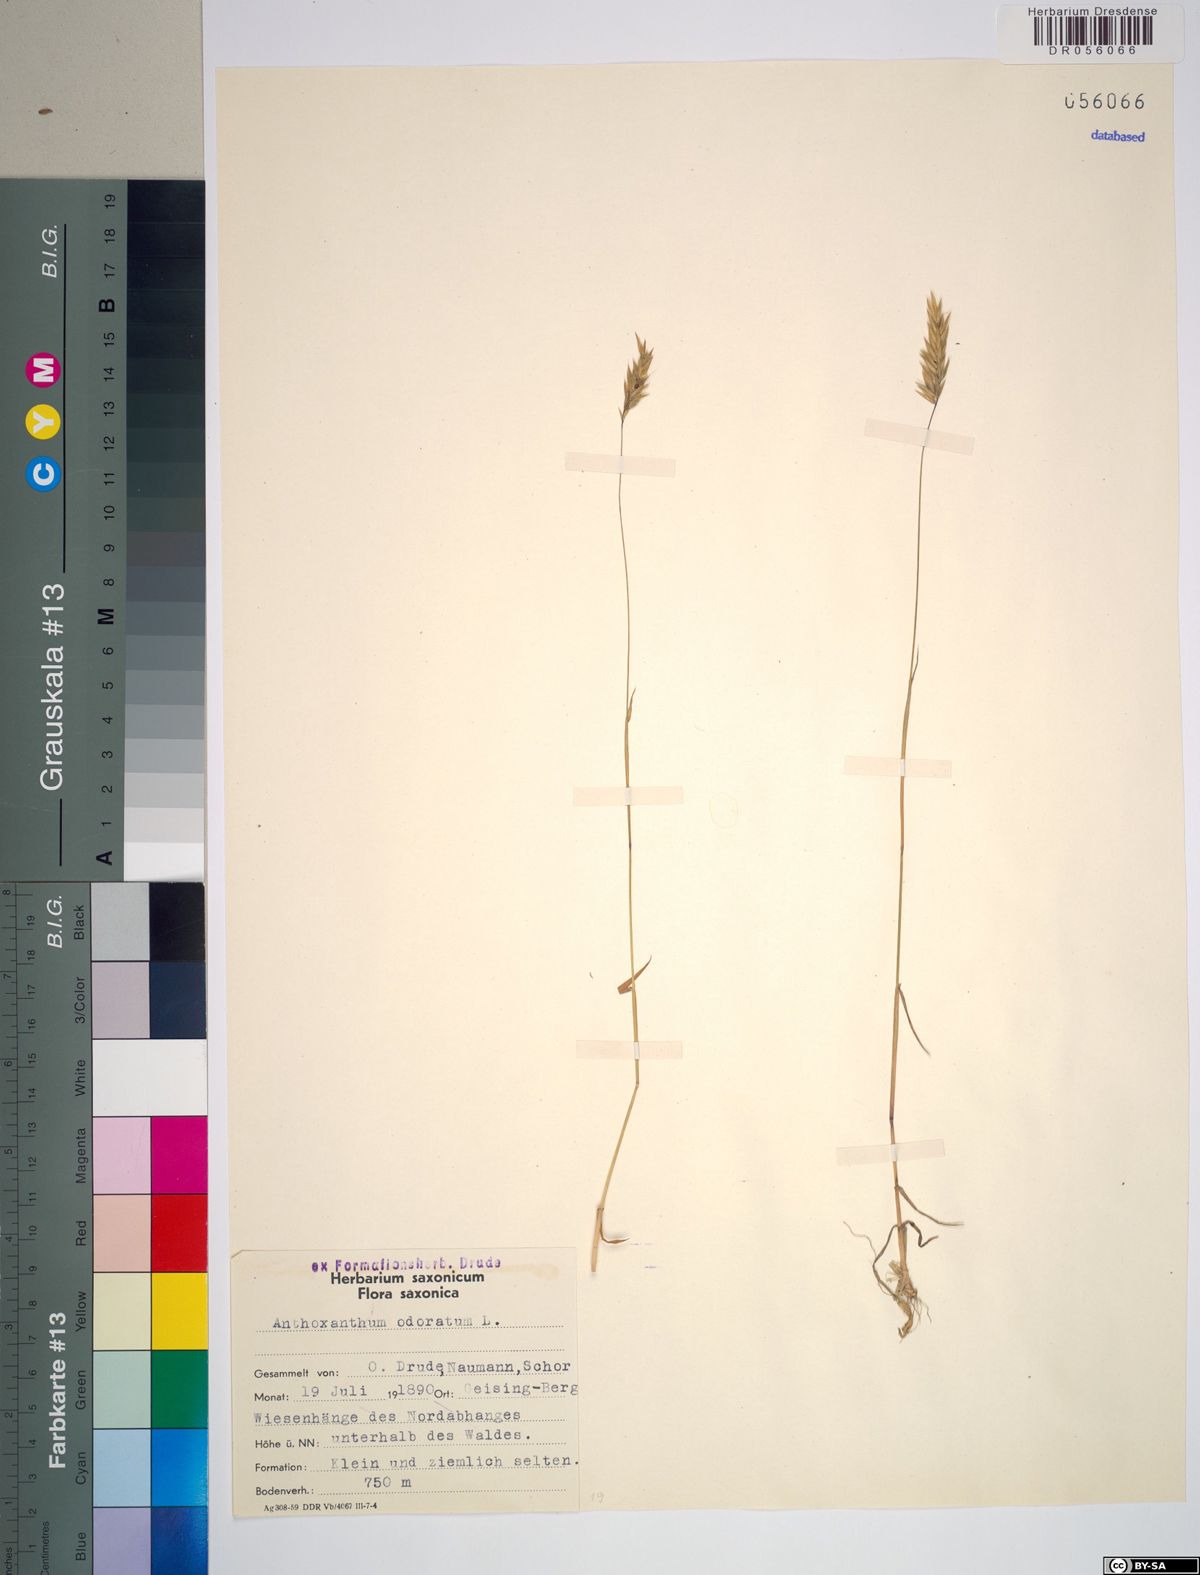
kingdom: Plantae
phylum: Tracheophyta
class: Liliopsida
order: Poales
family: Poaceae
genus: Anthoxanthum
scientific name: Anthoxanthum odoratum
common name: Sweet vernalgrass
